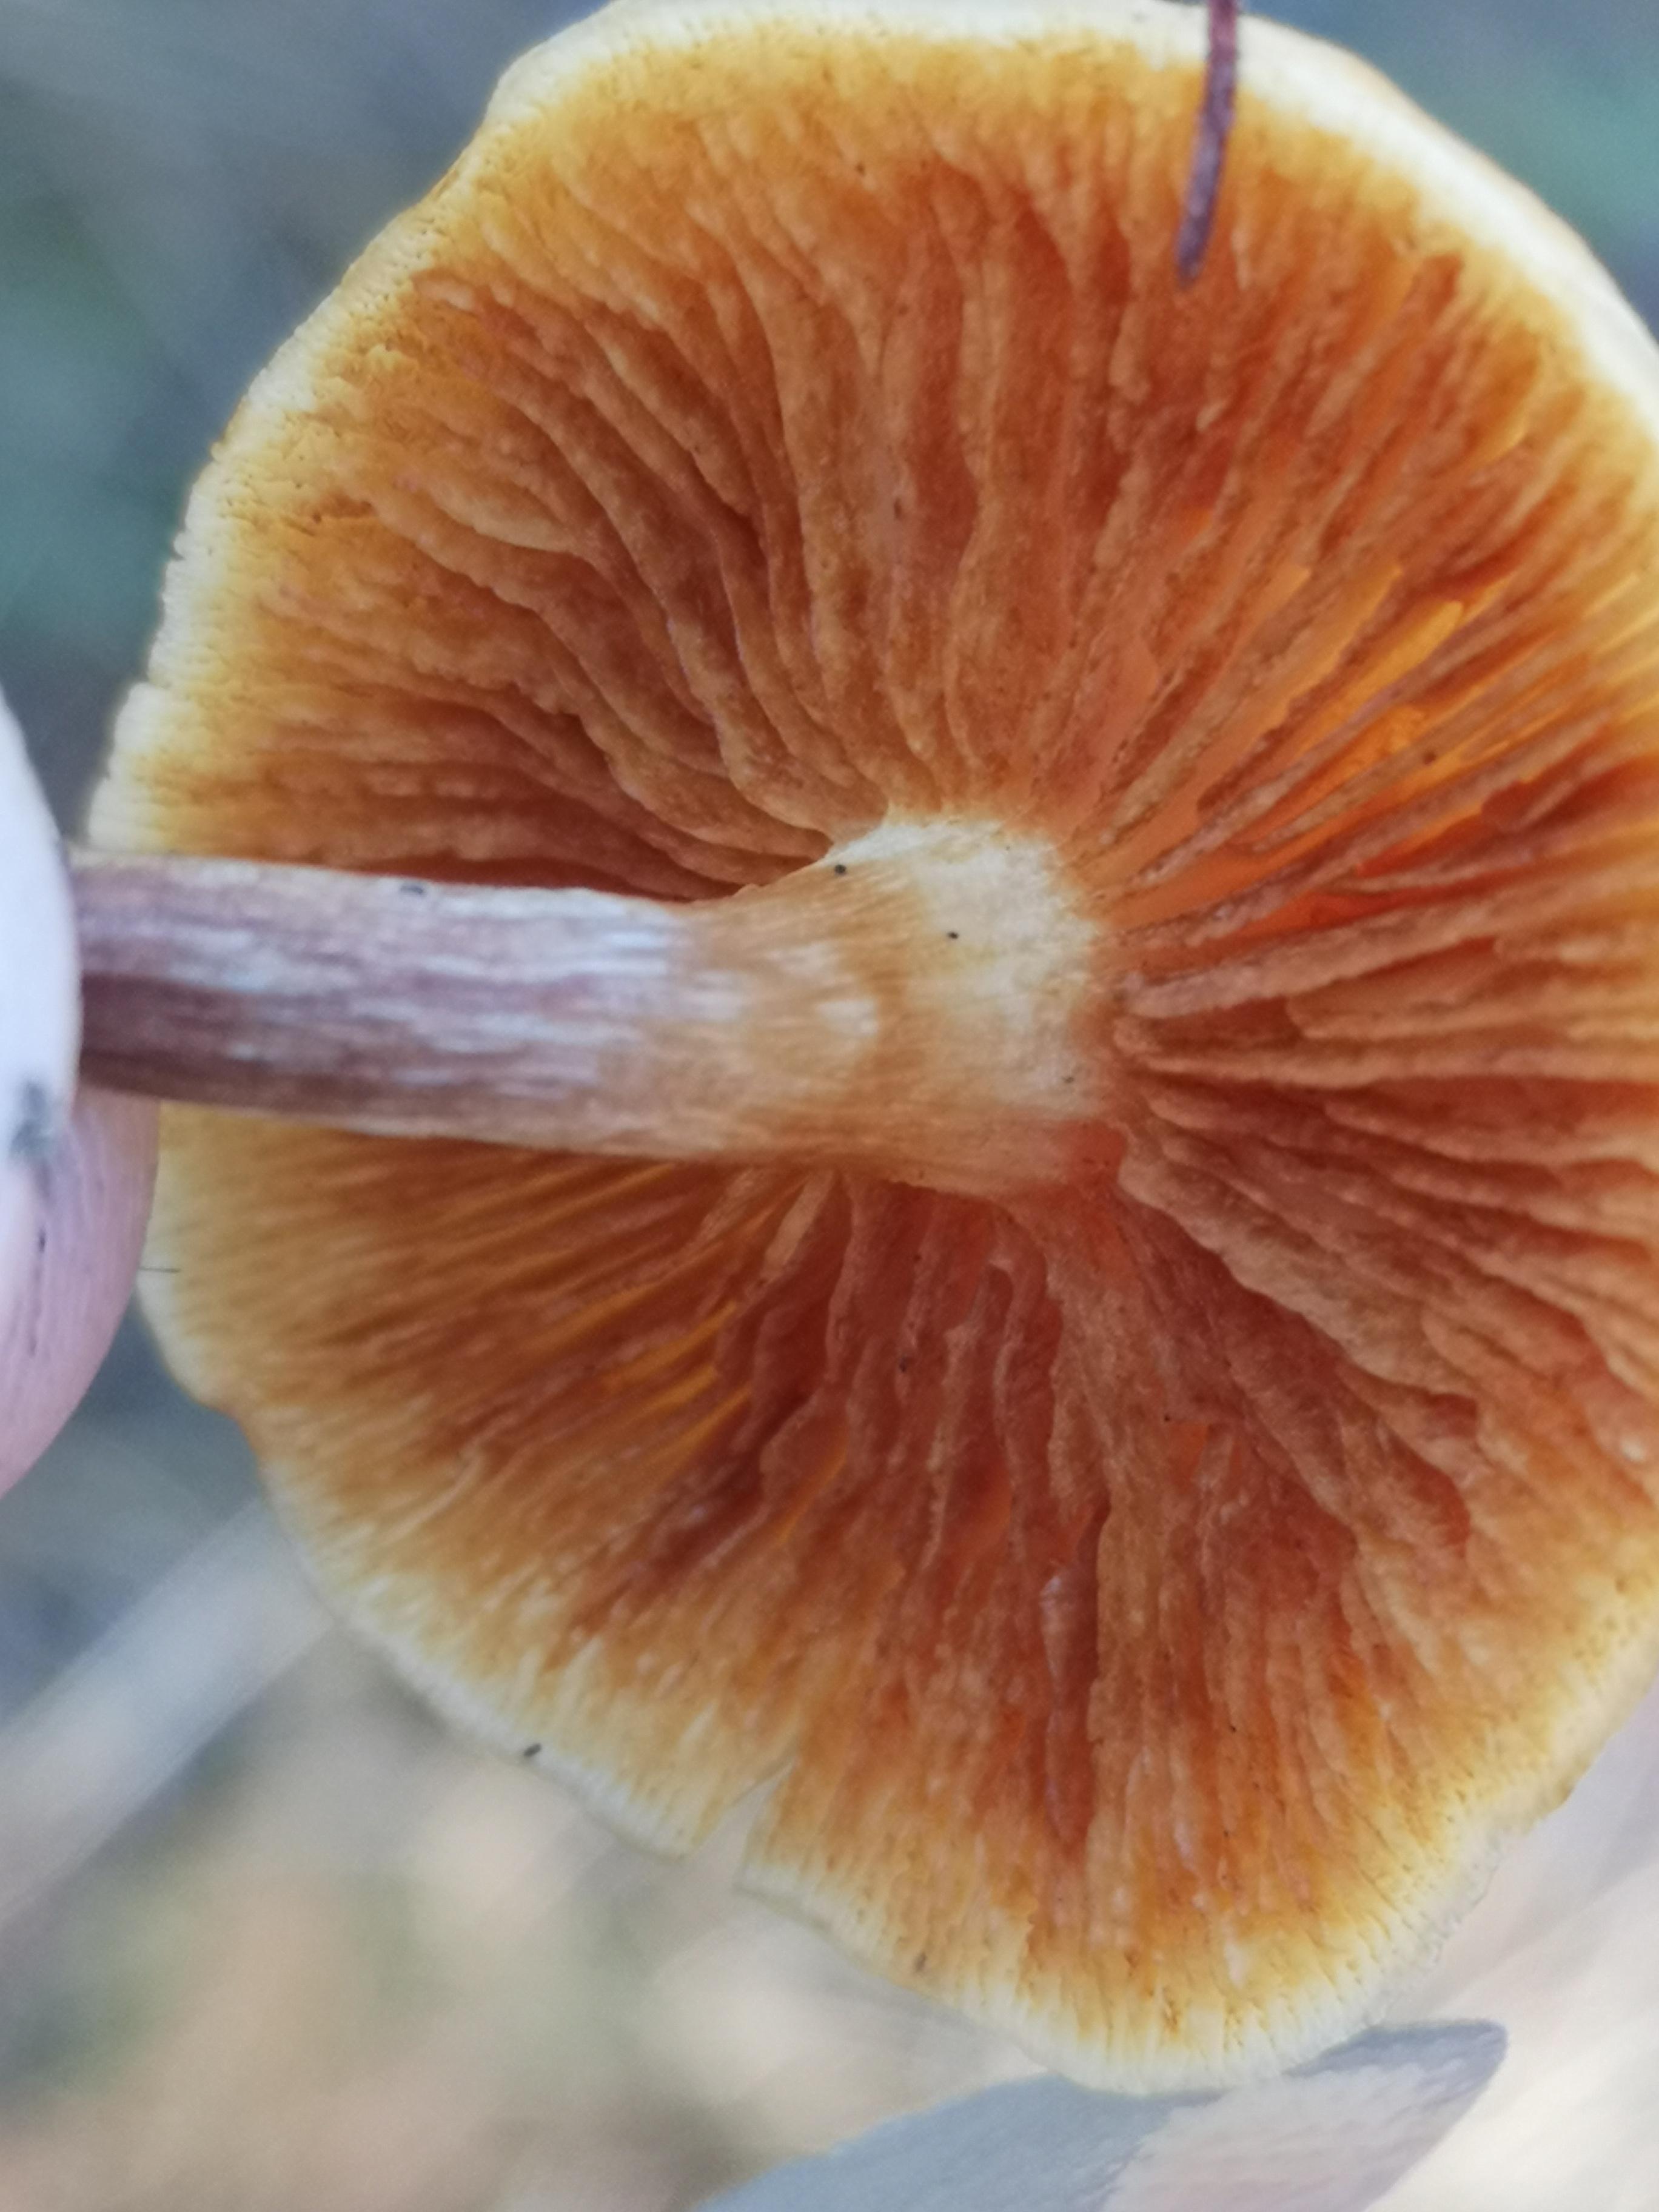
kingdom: Fungi
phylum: Basidiomycota
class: Agaricomycetes
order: Agaricales
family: Hymenogastraceae
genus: Gymnopilus
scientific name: Gymnopilus penetrans
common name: plettet flammehat
